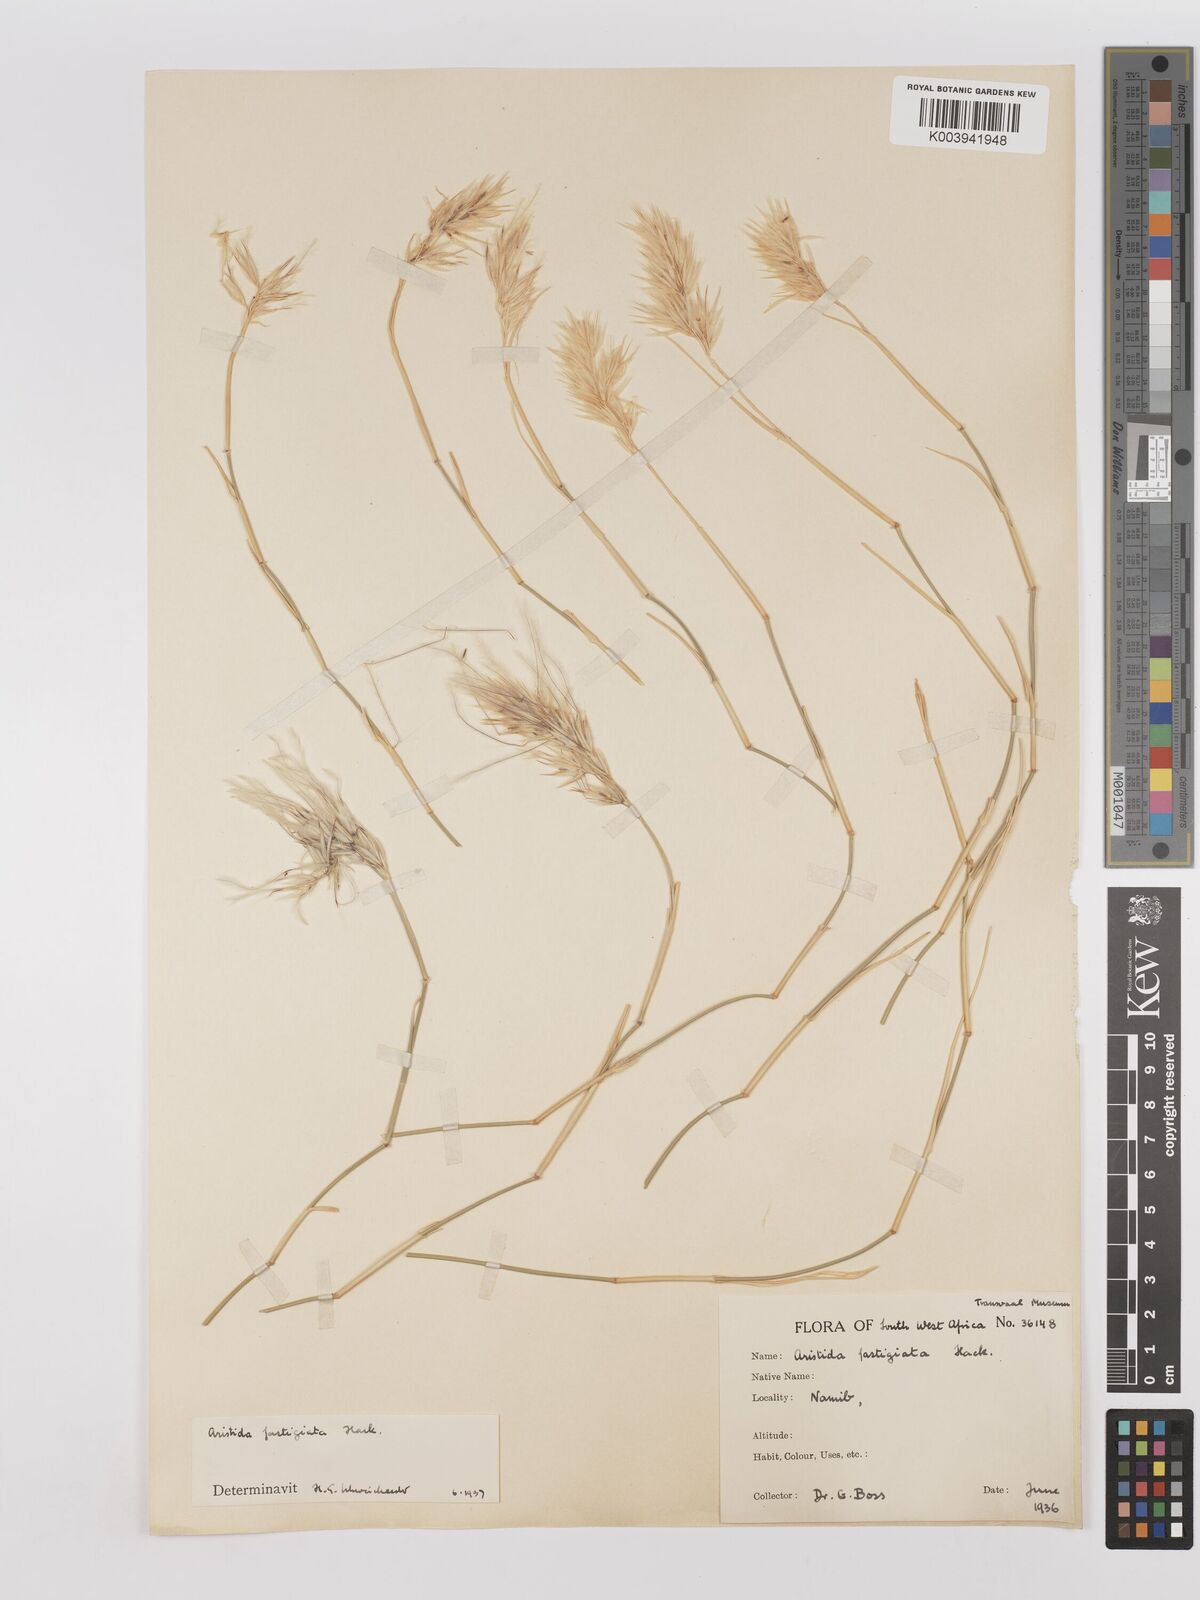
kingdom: Plantae
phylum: Tracheophyta
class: Liliopsida
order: Poales
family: Poaceae
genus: Stipagrostis
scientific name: Stipagrostis fastigiata
